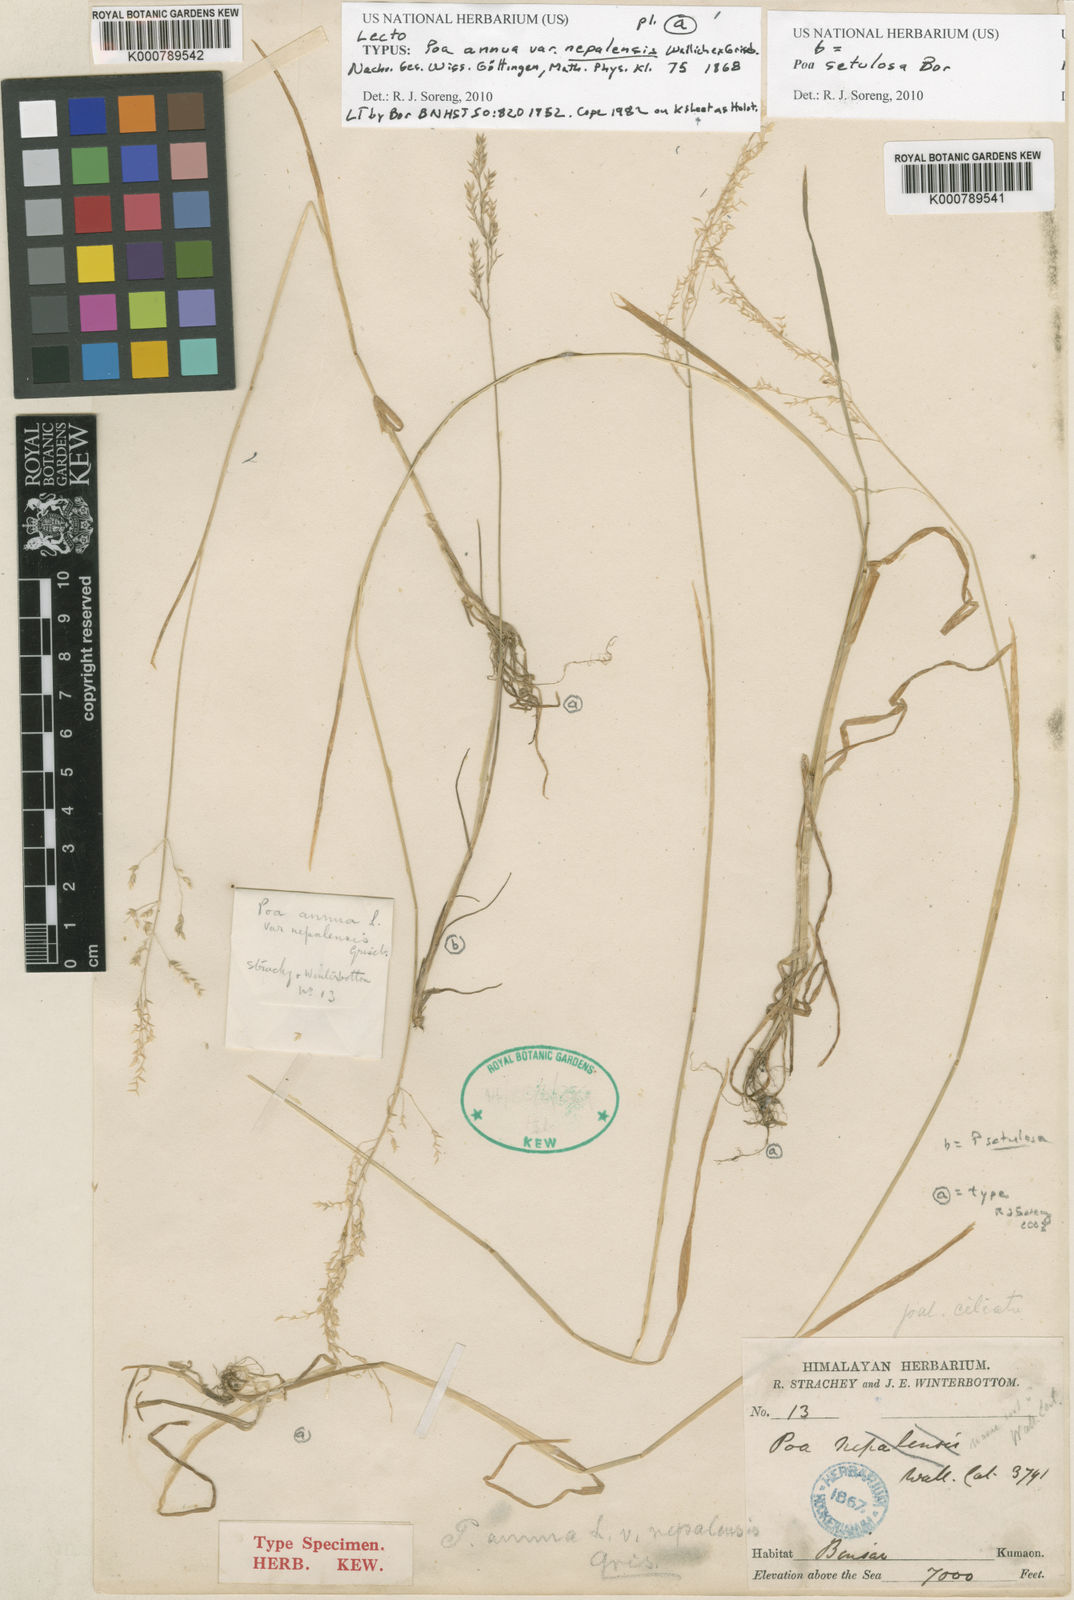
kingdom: Plantae
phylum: Tracheophyta
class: Liliopsida
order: Poales
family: Poaceae
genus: Poa
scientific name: Poa annua
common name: Annual bluegrass
